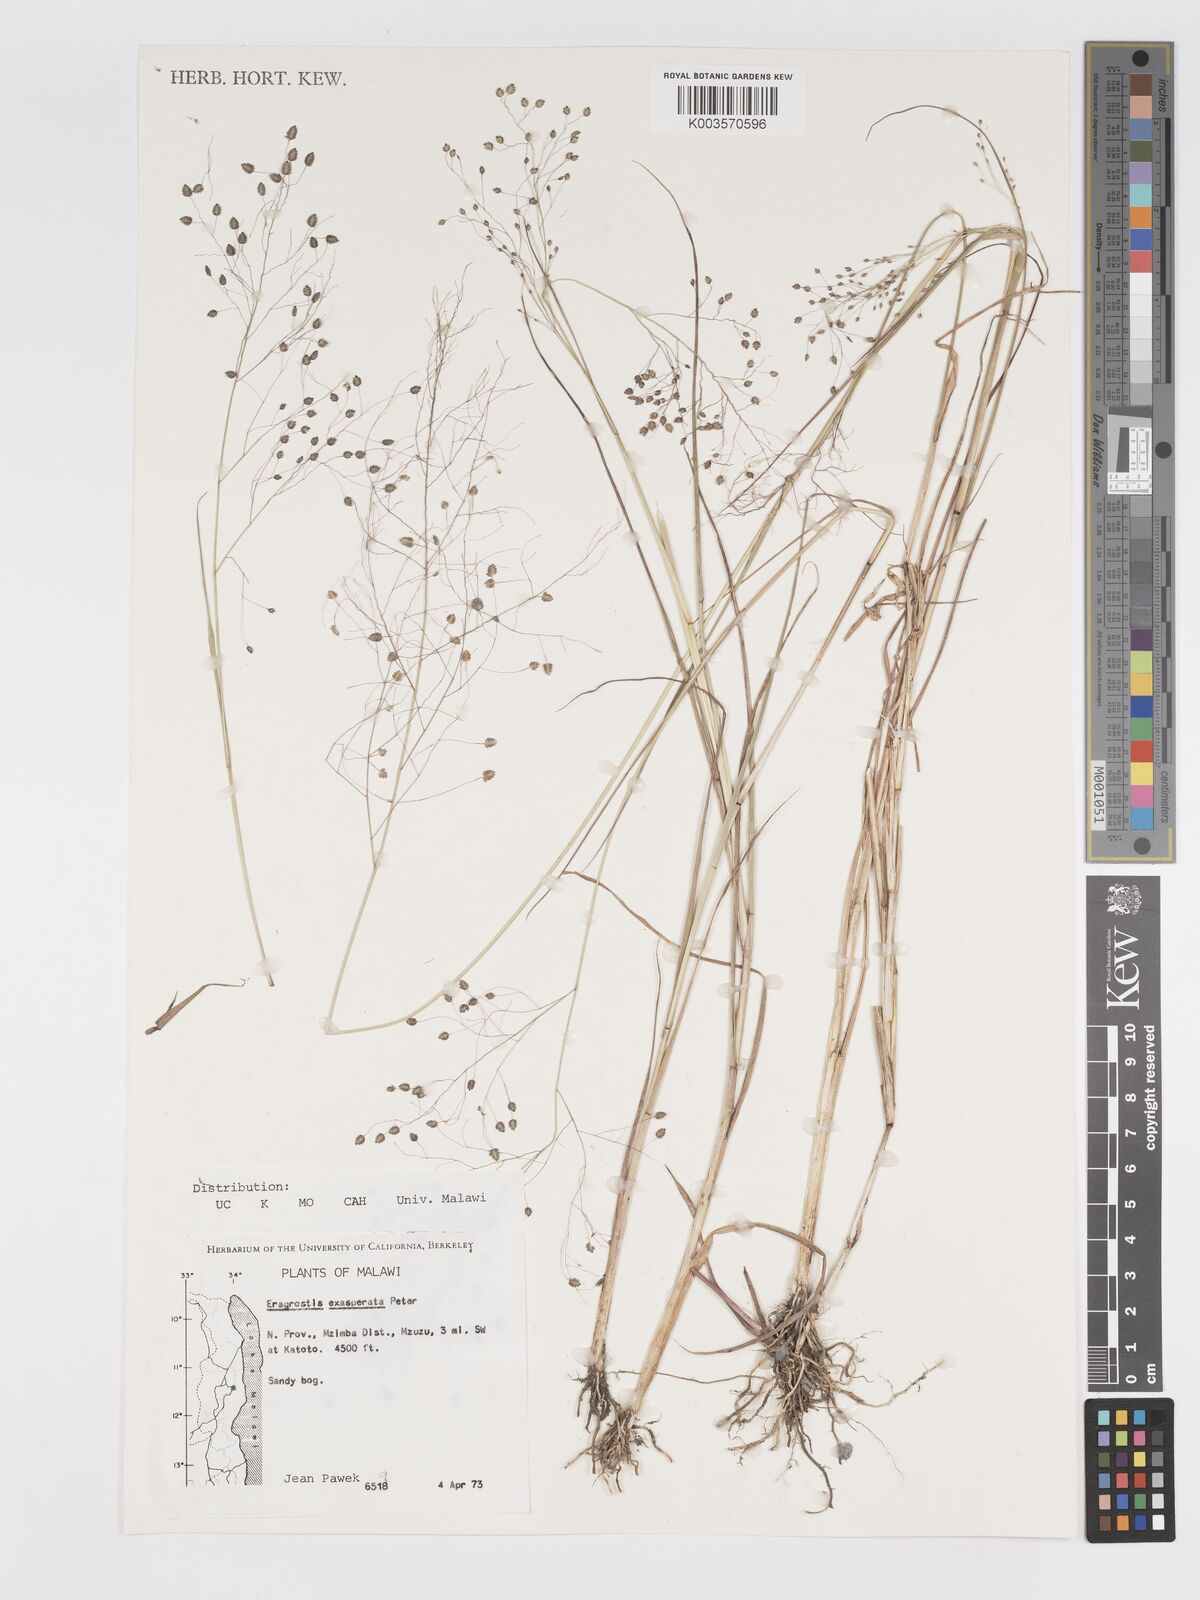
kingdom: Plantae
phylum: Tracheophyta
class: Liliopsida
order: Poales
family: Poaceae
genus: Eragrostis
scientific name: Eragrostis exasperata
